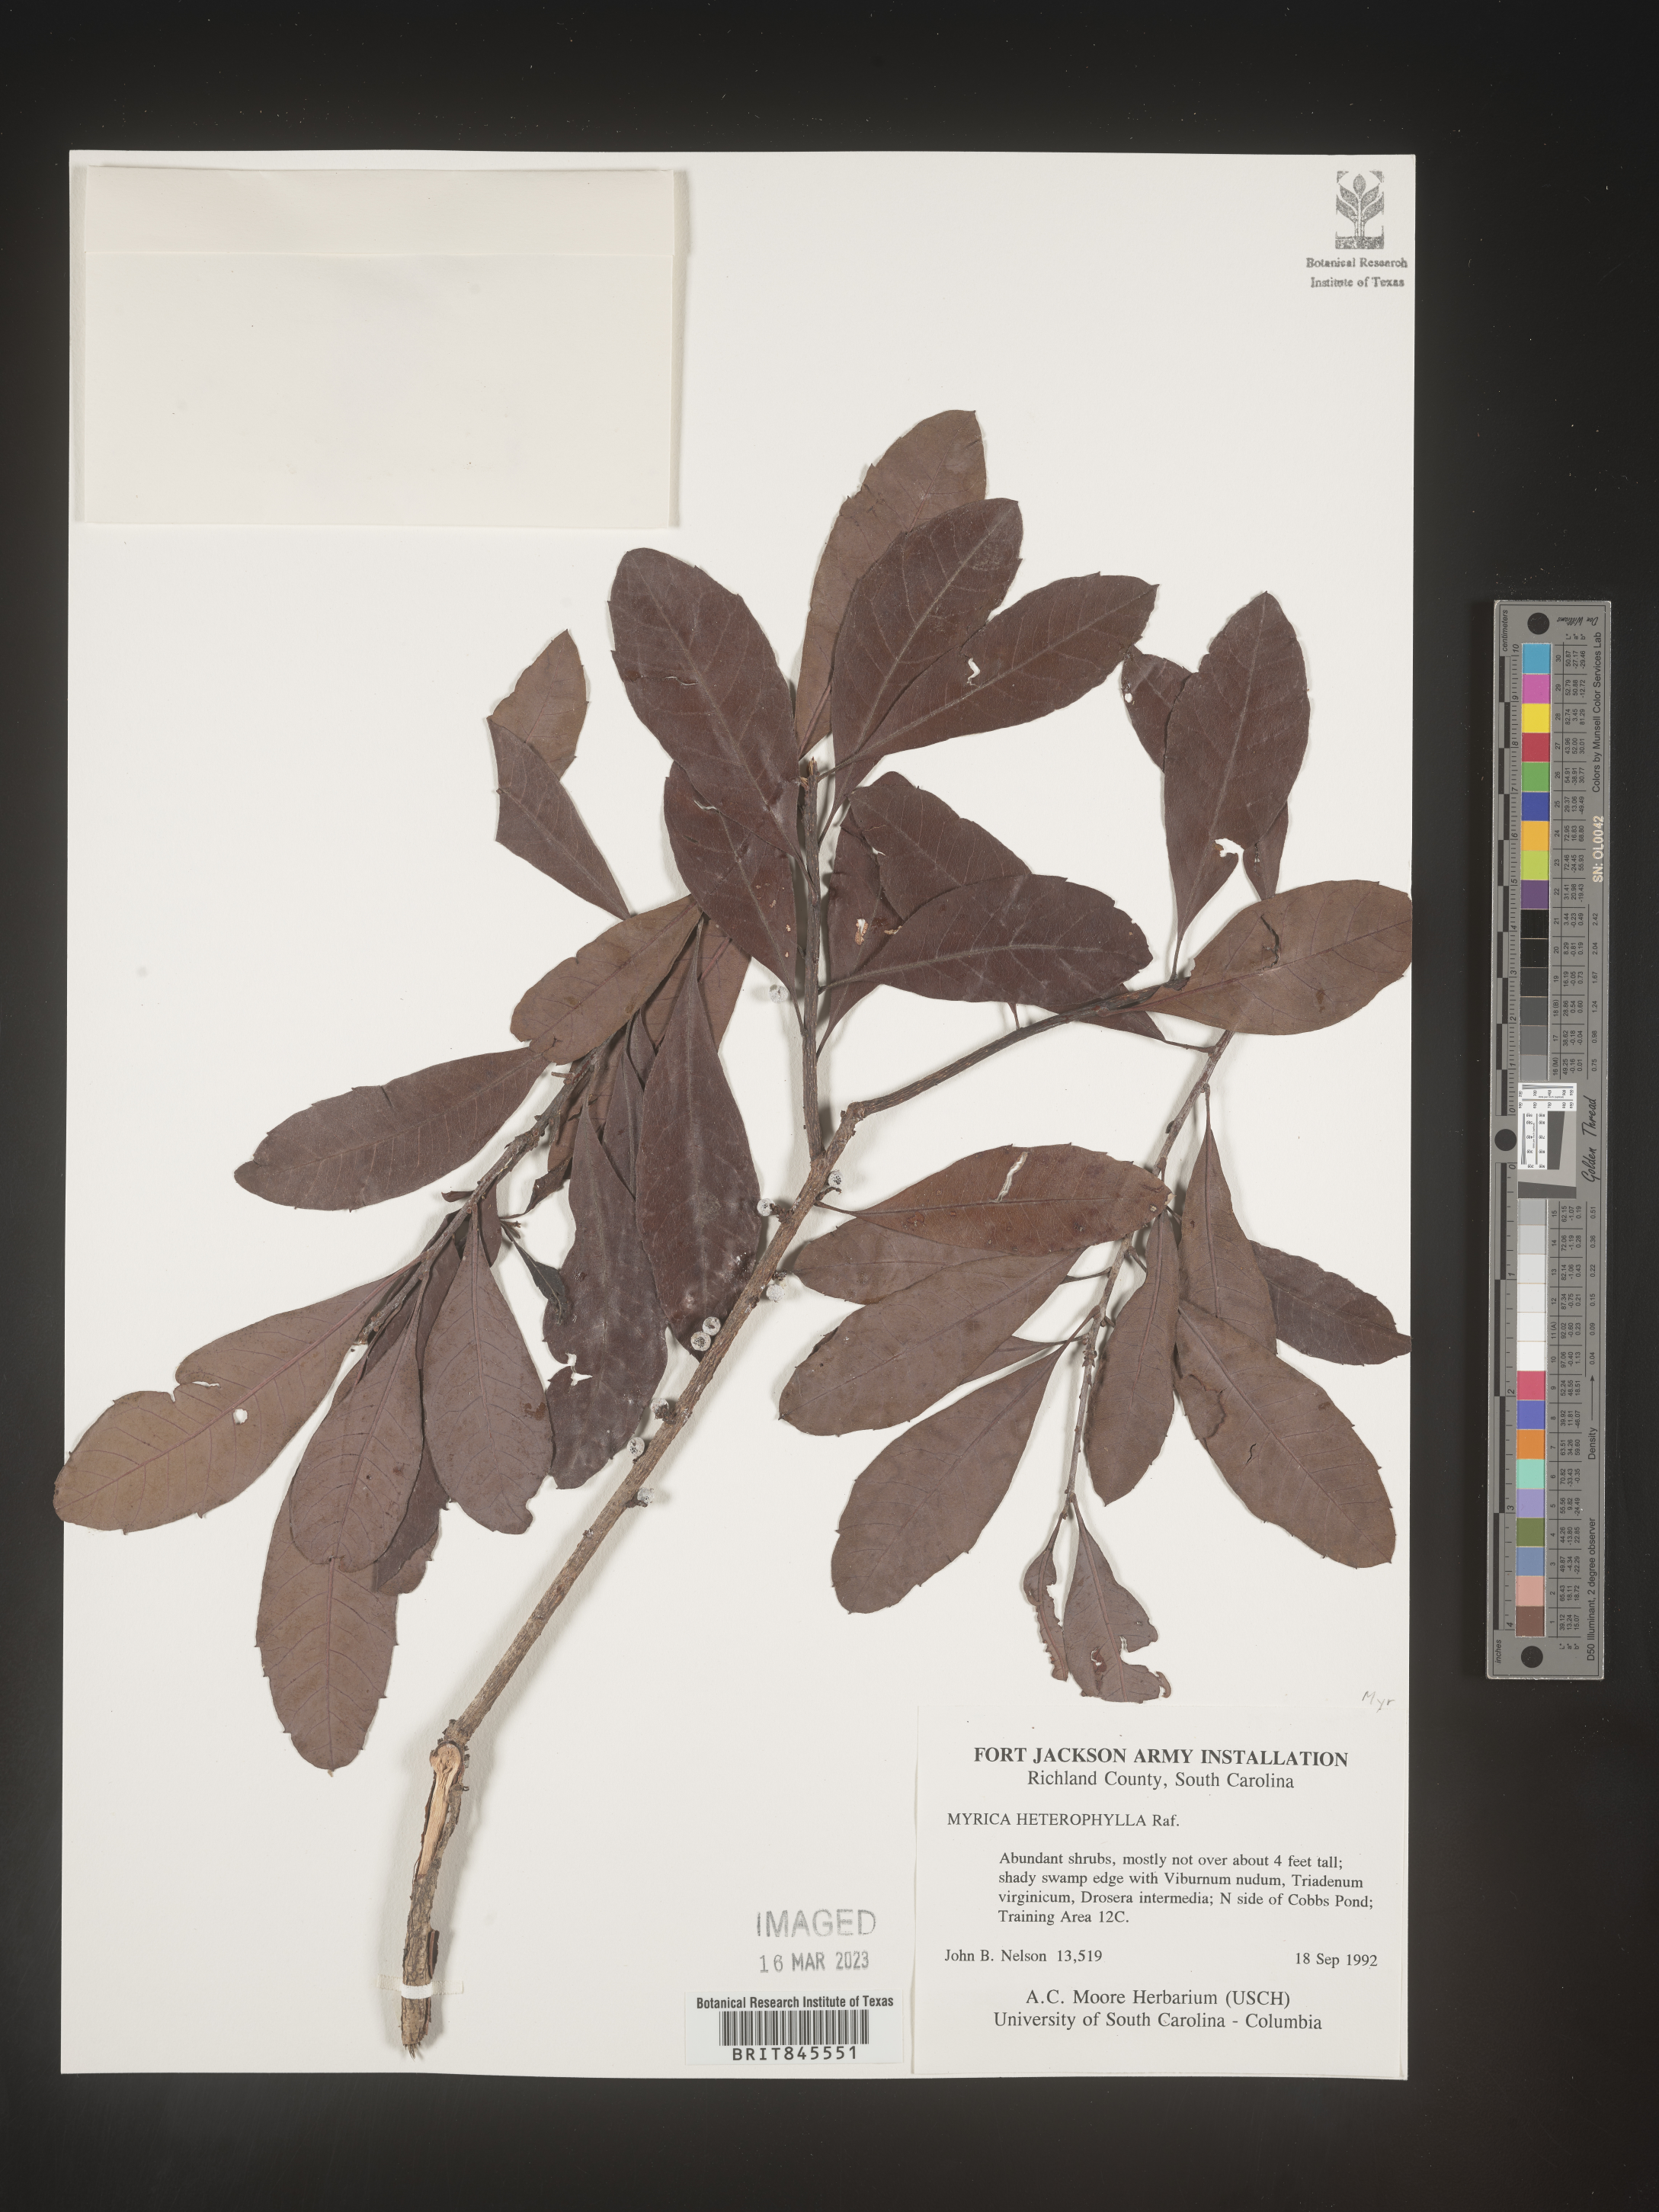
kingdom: Plantae
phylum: Tracheophyta
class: Magnoliopsida
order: Fagales
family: Myricaceae
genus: Morella
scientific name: Morella caroliniensis
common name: Evergreen bayberry
